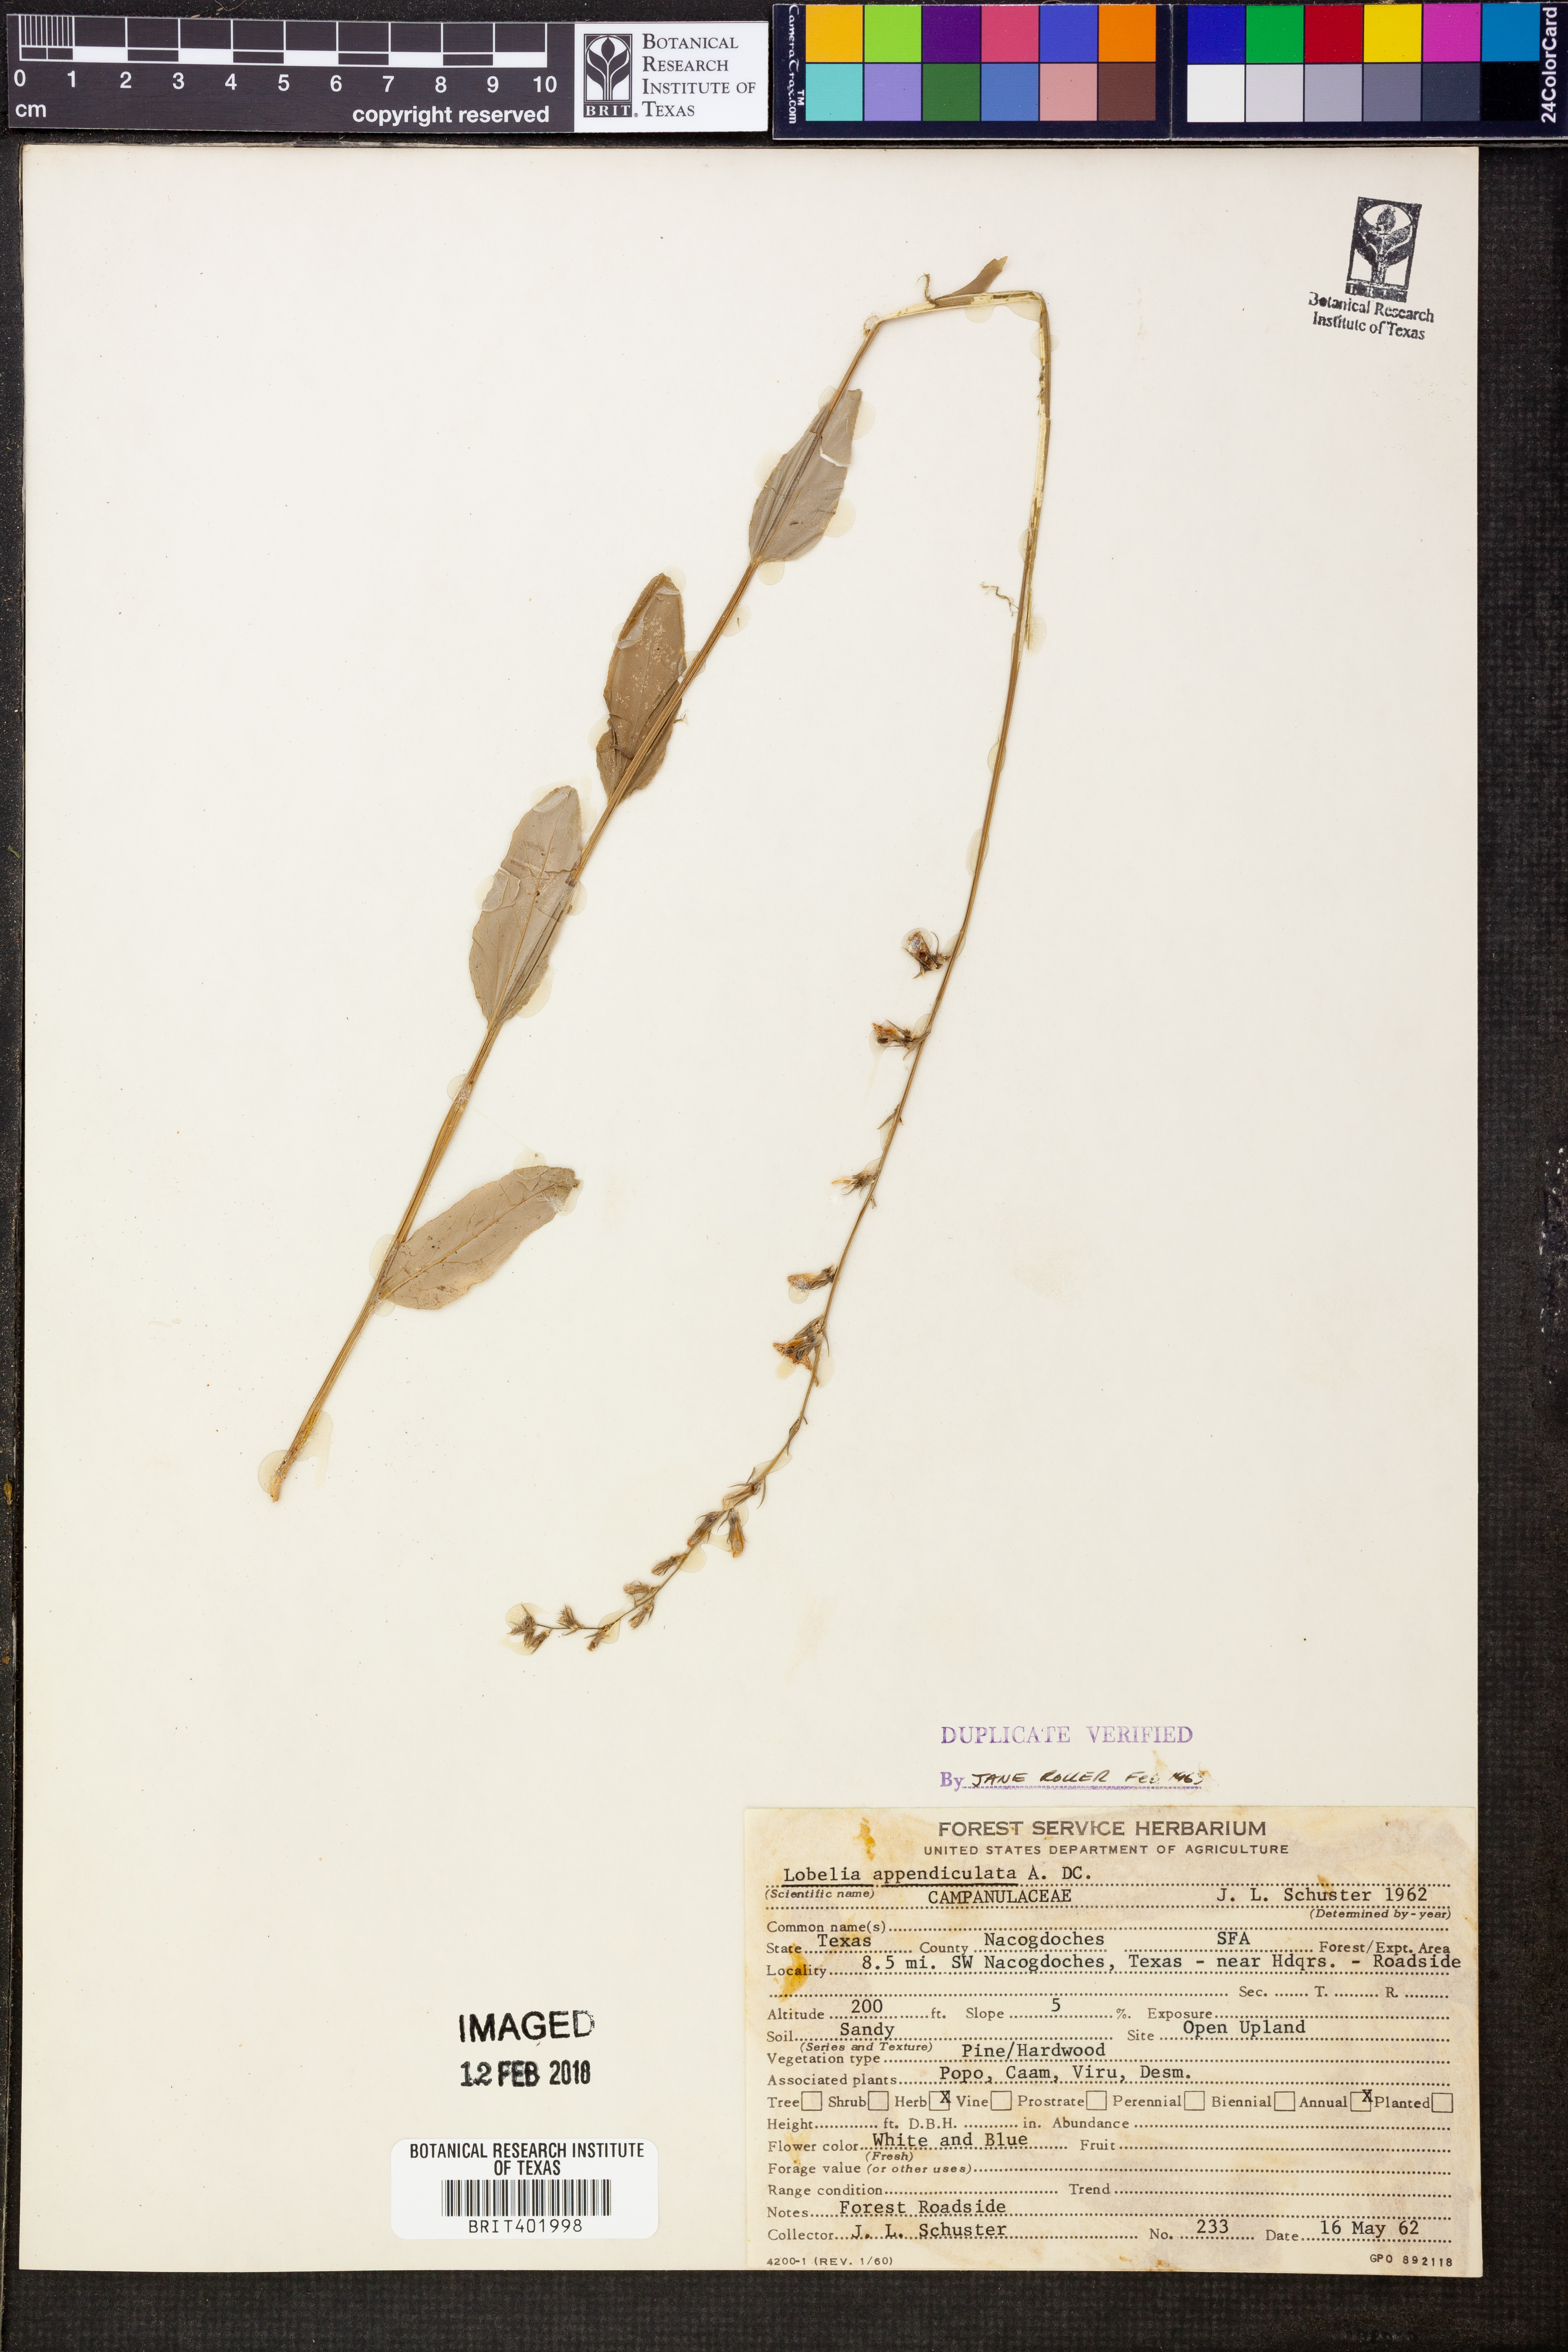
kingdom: Plantae
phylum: Tracheophyta
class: Magnoliopsida
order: Asterales
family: Campanulaceae
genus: Lobelia
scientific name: Lobelia appendiculata
